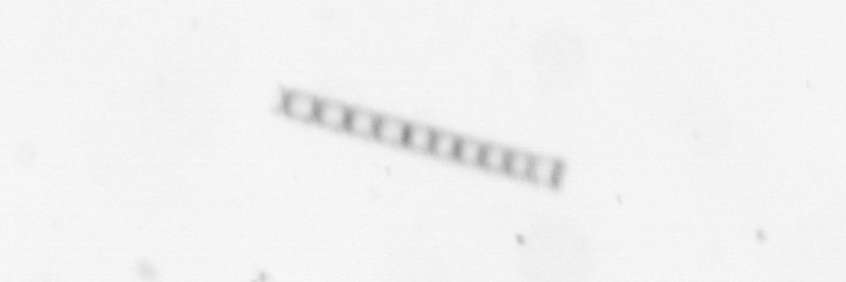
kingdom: Chromista
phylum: Ochrophyta
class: Bacillariophyceae
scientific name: Bacillariophyceae
